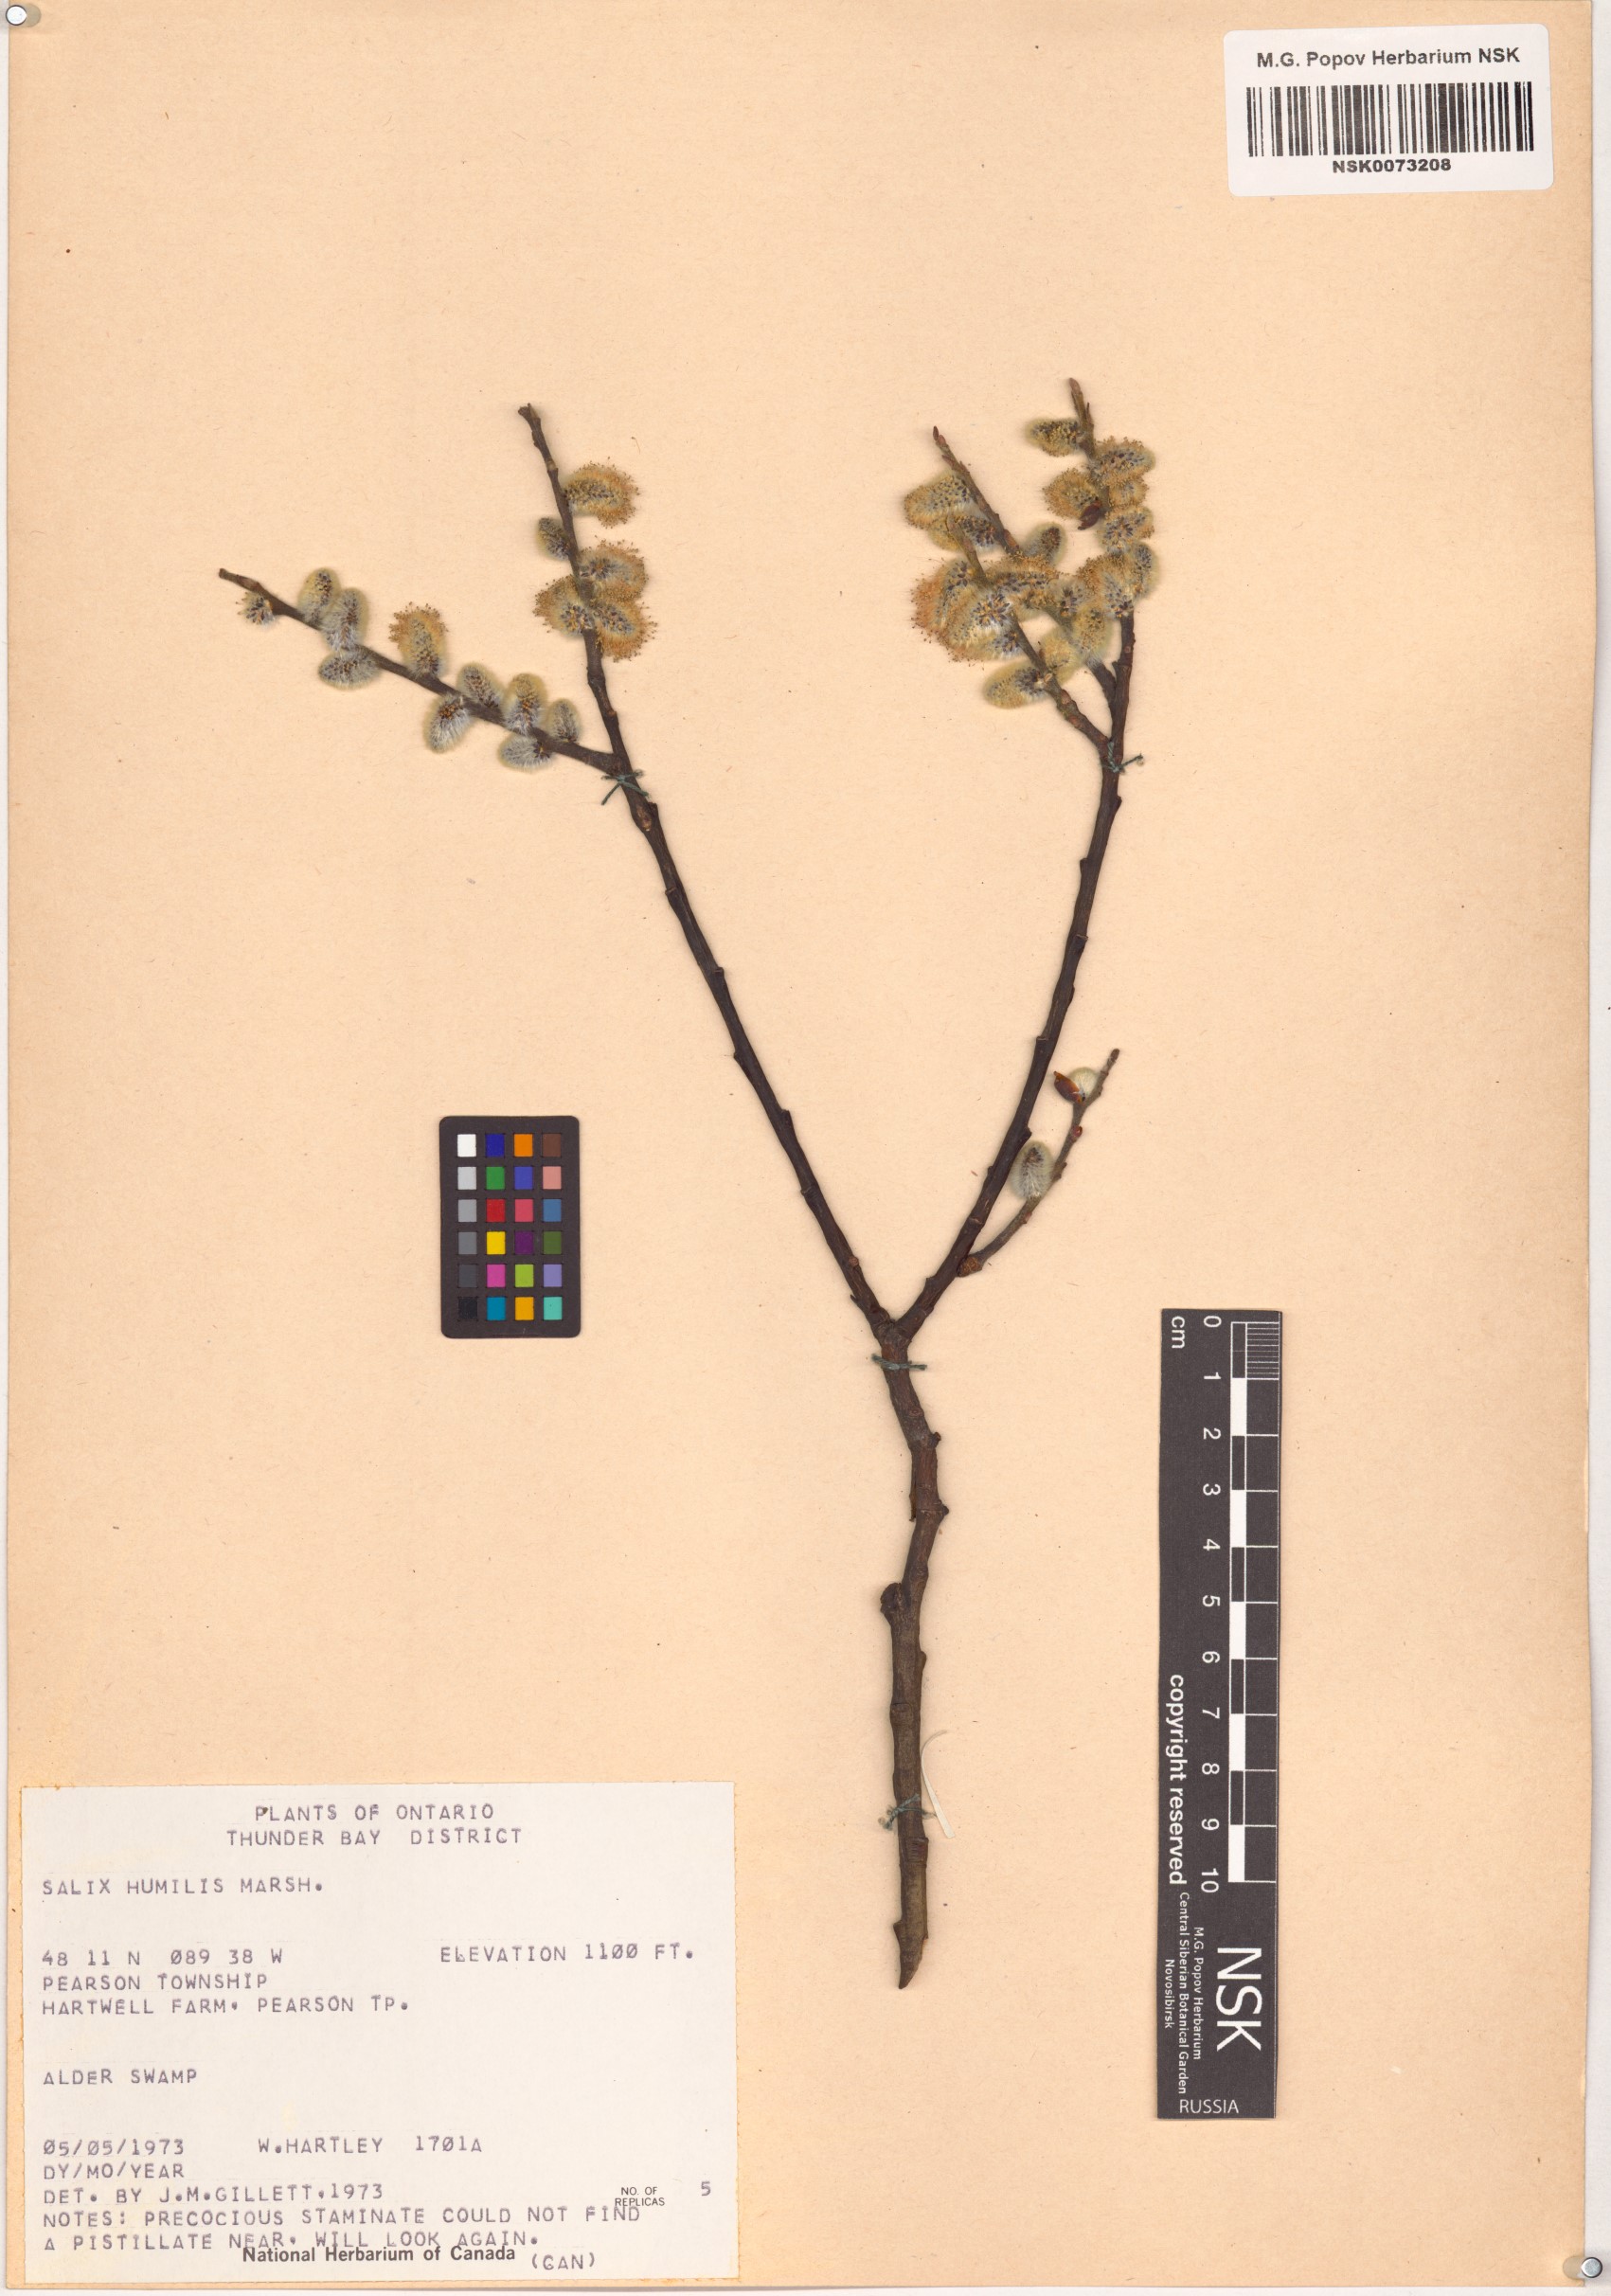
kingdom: Plantae
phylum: Tracheophyta
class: Magnoliopsida
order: Malpighiales
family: Salicaceae
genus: Salix
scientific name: Salix humilis
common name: Prairie willow
